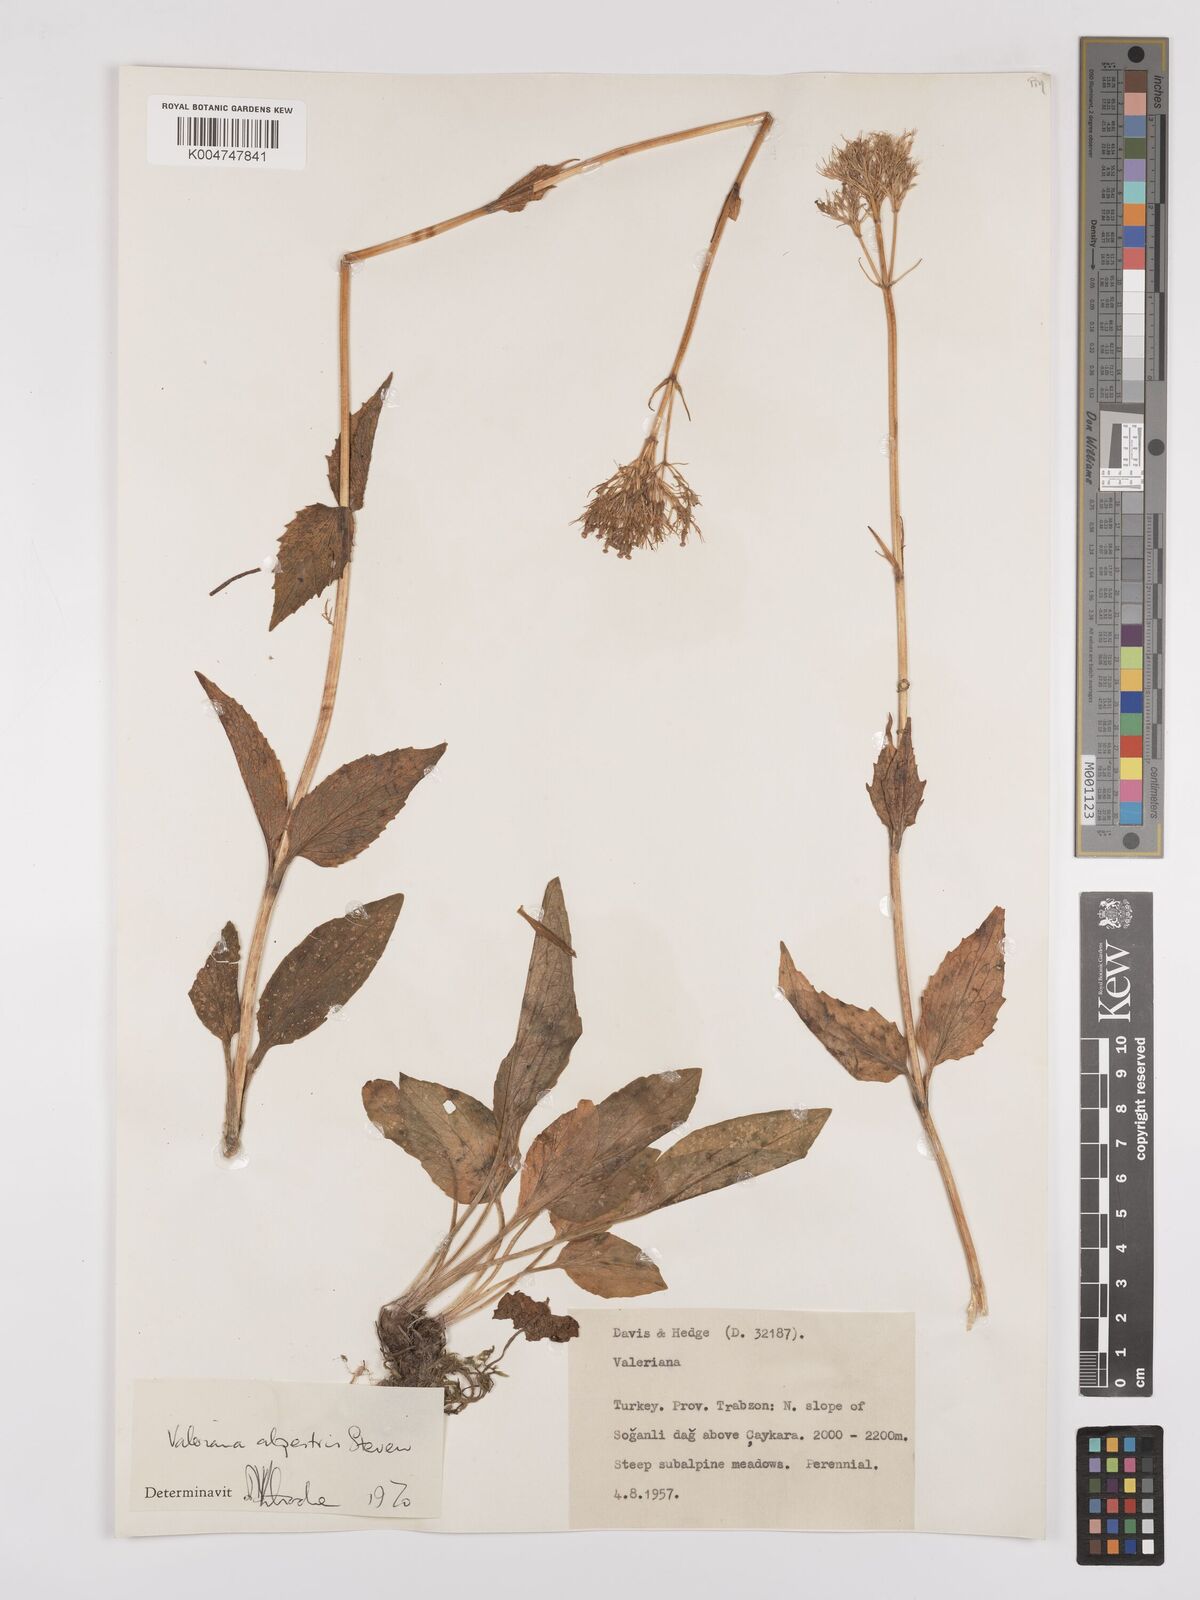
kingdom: Plantae
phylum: Tracheophyta
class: Magnoliopsida
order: Dipsacales
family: Caprifoliaceae
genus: Valeriana
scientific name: Valeriana alpestris
